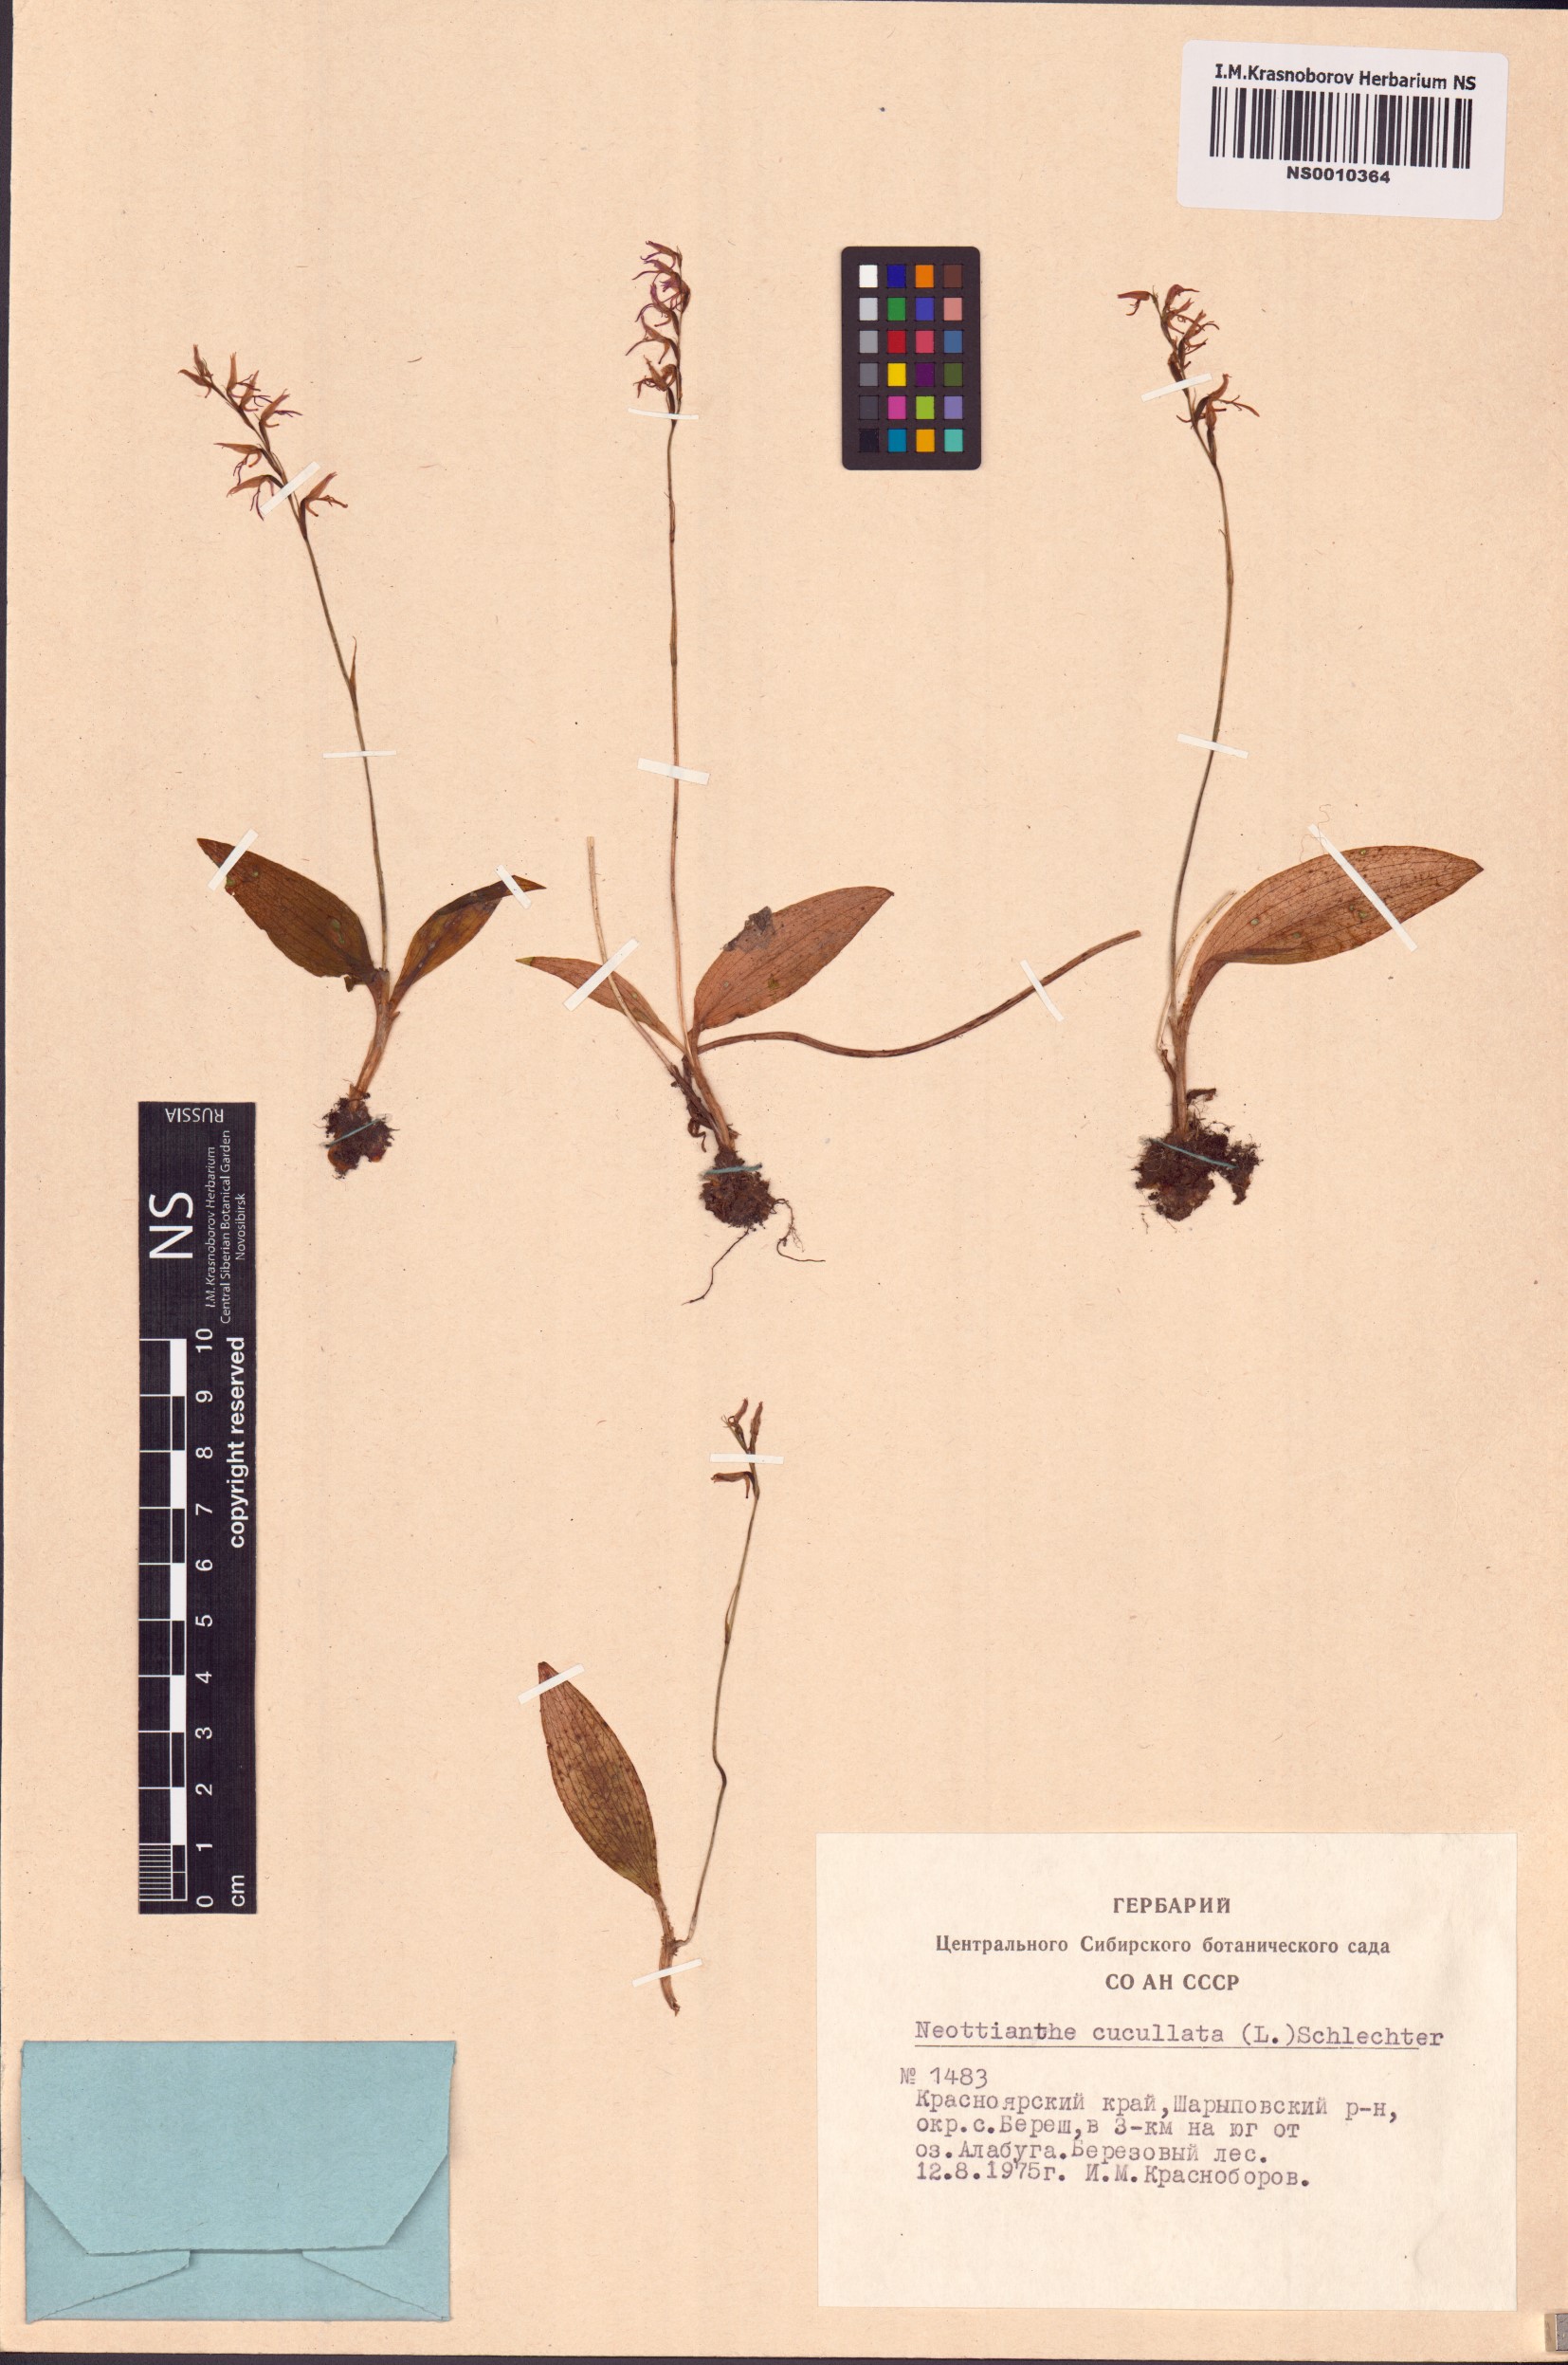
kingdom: Plantae
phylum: Tracheophyta
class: Liliopsida
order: Asparagales
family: Orchidaceae
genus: Hemipilia
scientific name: Hemipilia cucullata
